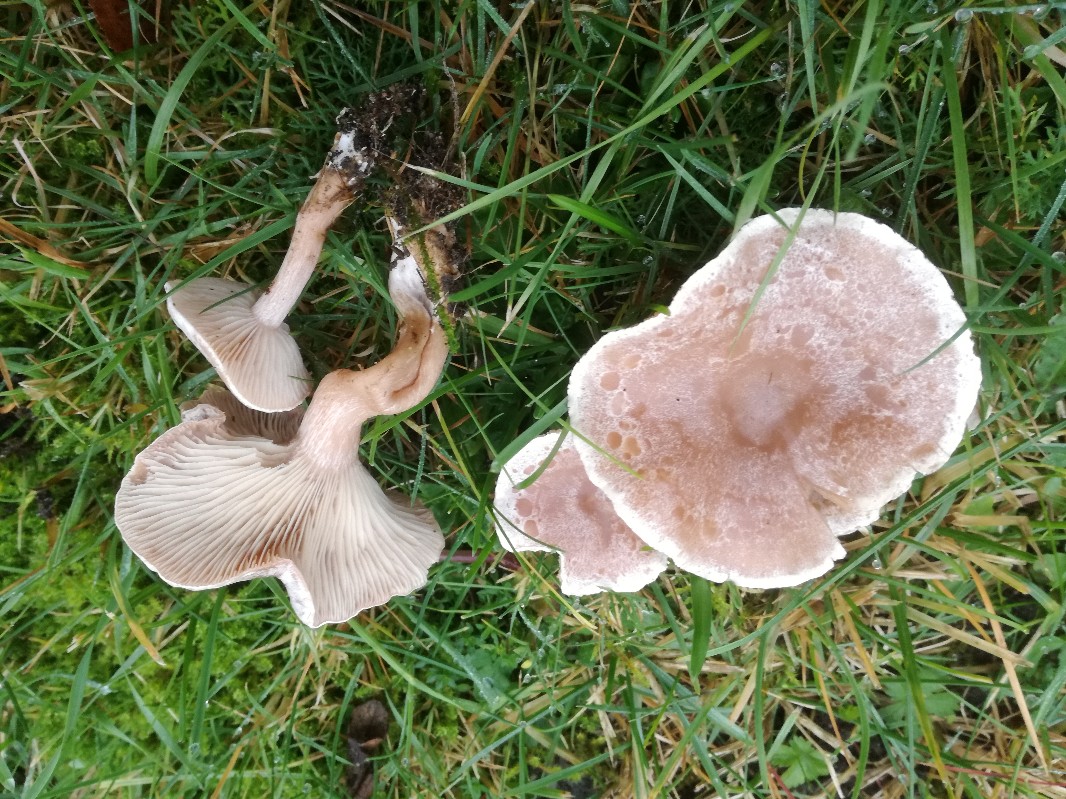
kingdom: Fungi
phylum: Basidiomycota
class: Agaricomycetes
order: Agaricales
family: Tricholomataceae
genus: Clitocybe
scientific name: Clitocybe rivulosa
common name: eng-tragthat
